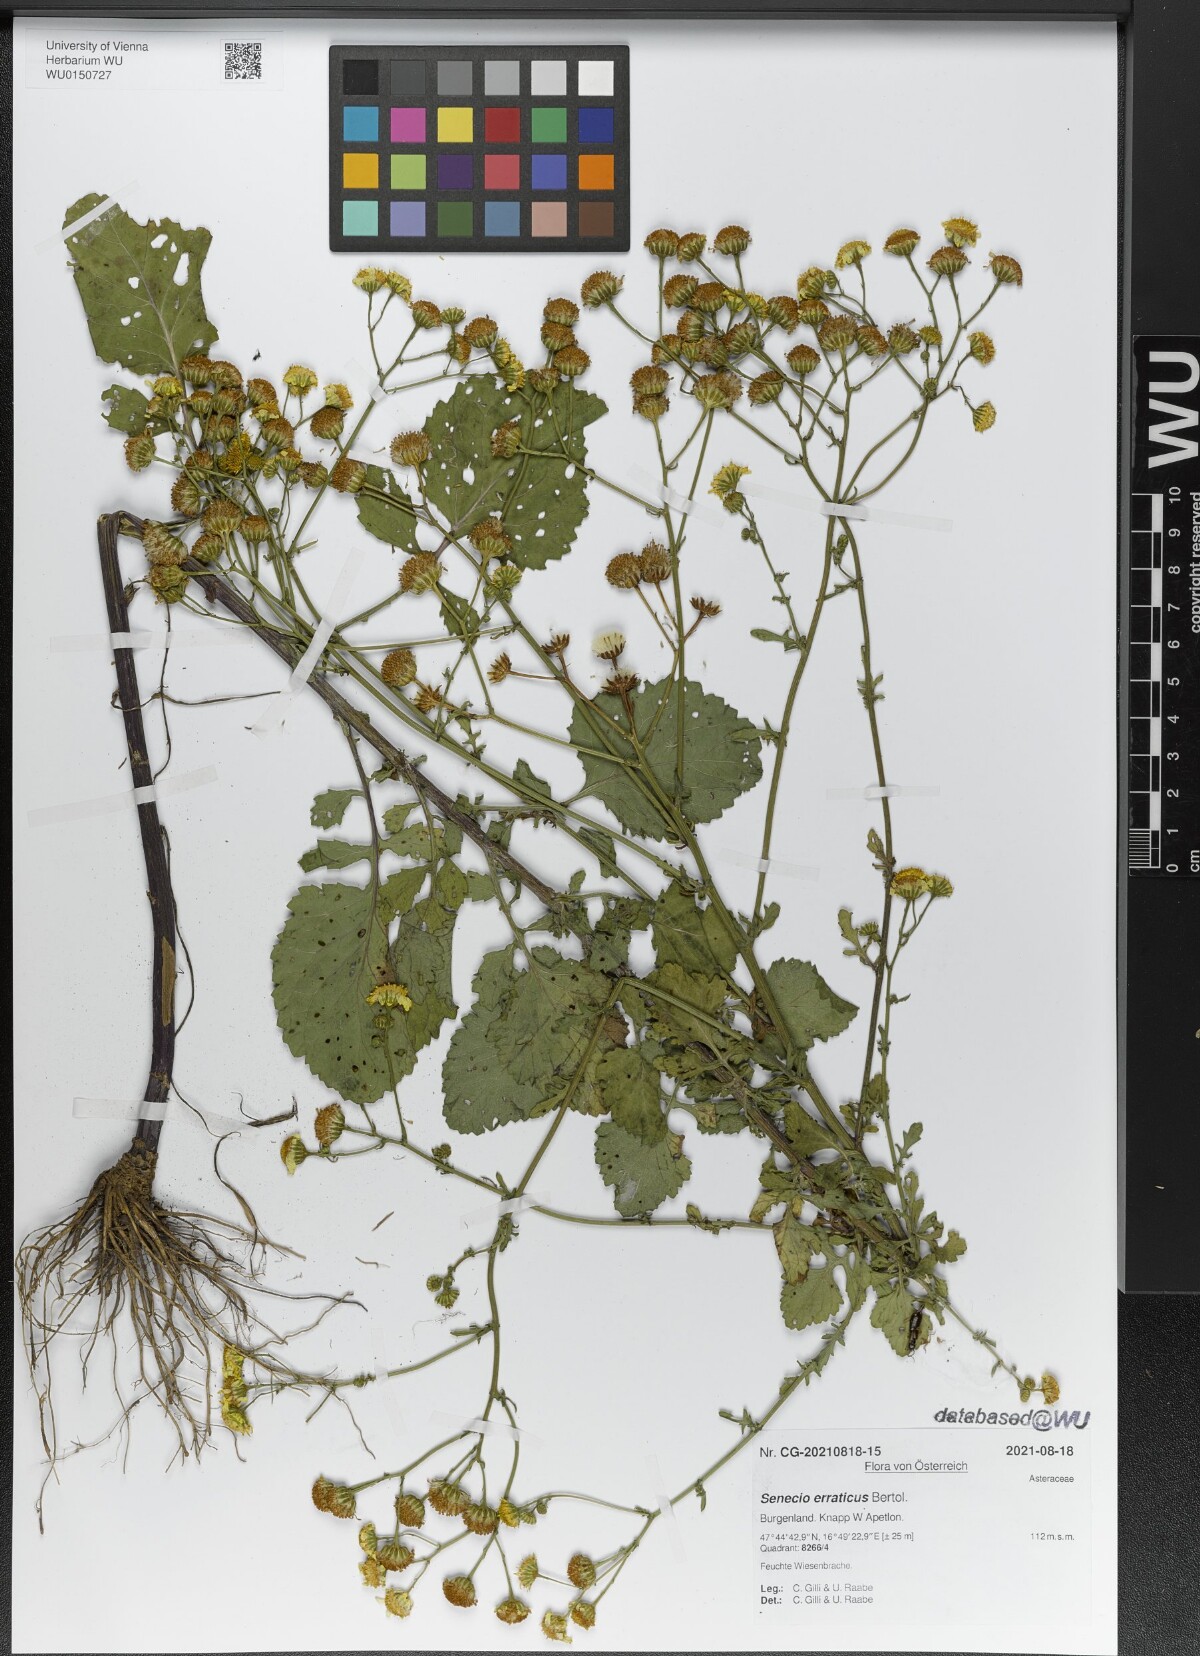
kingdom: Plantae
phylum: Tracheophyta
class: Magnoliopsida
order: Asterales
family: Asteraceae
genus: Jacobaea
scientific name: Jacobaea erratica
